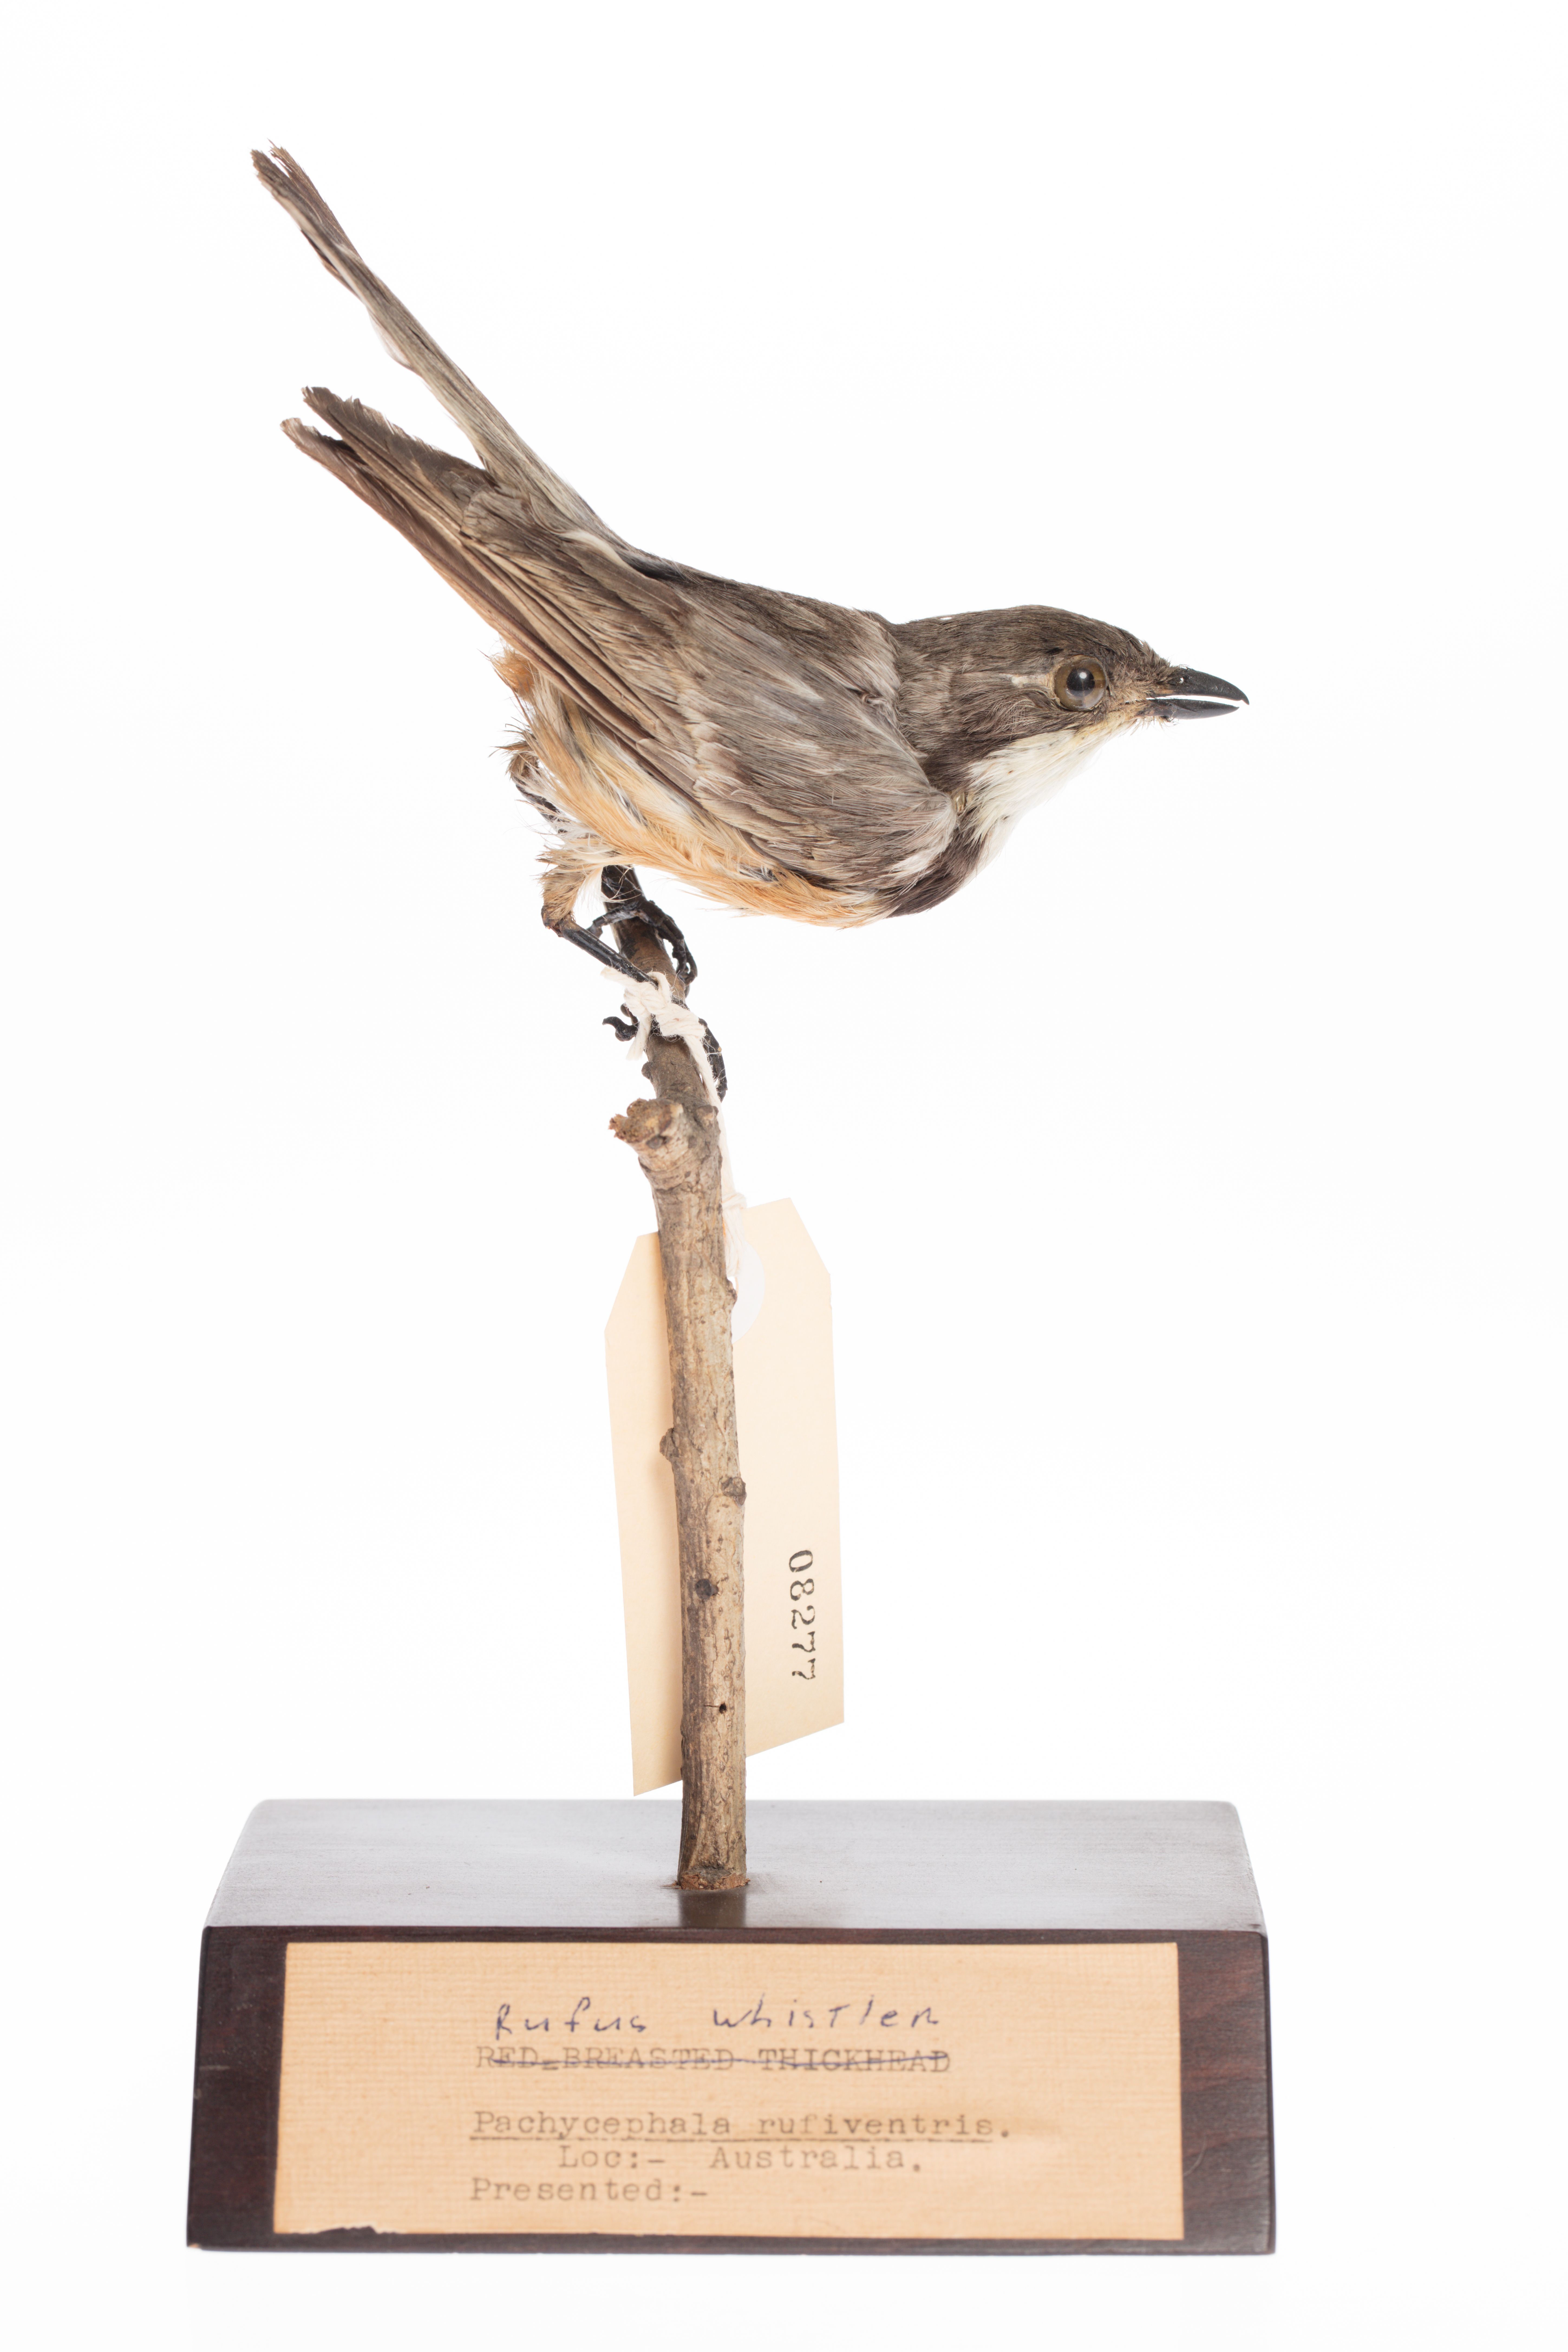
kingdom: Animalia
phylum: Chordata
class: Aves
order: Passeriformes
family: Pachycephalidae
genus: Pachycephala
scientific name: Pachycephala rufiventris
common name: Rufous whistler
